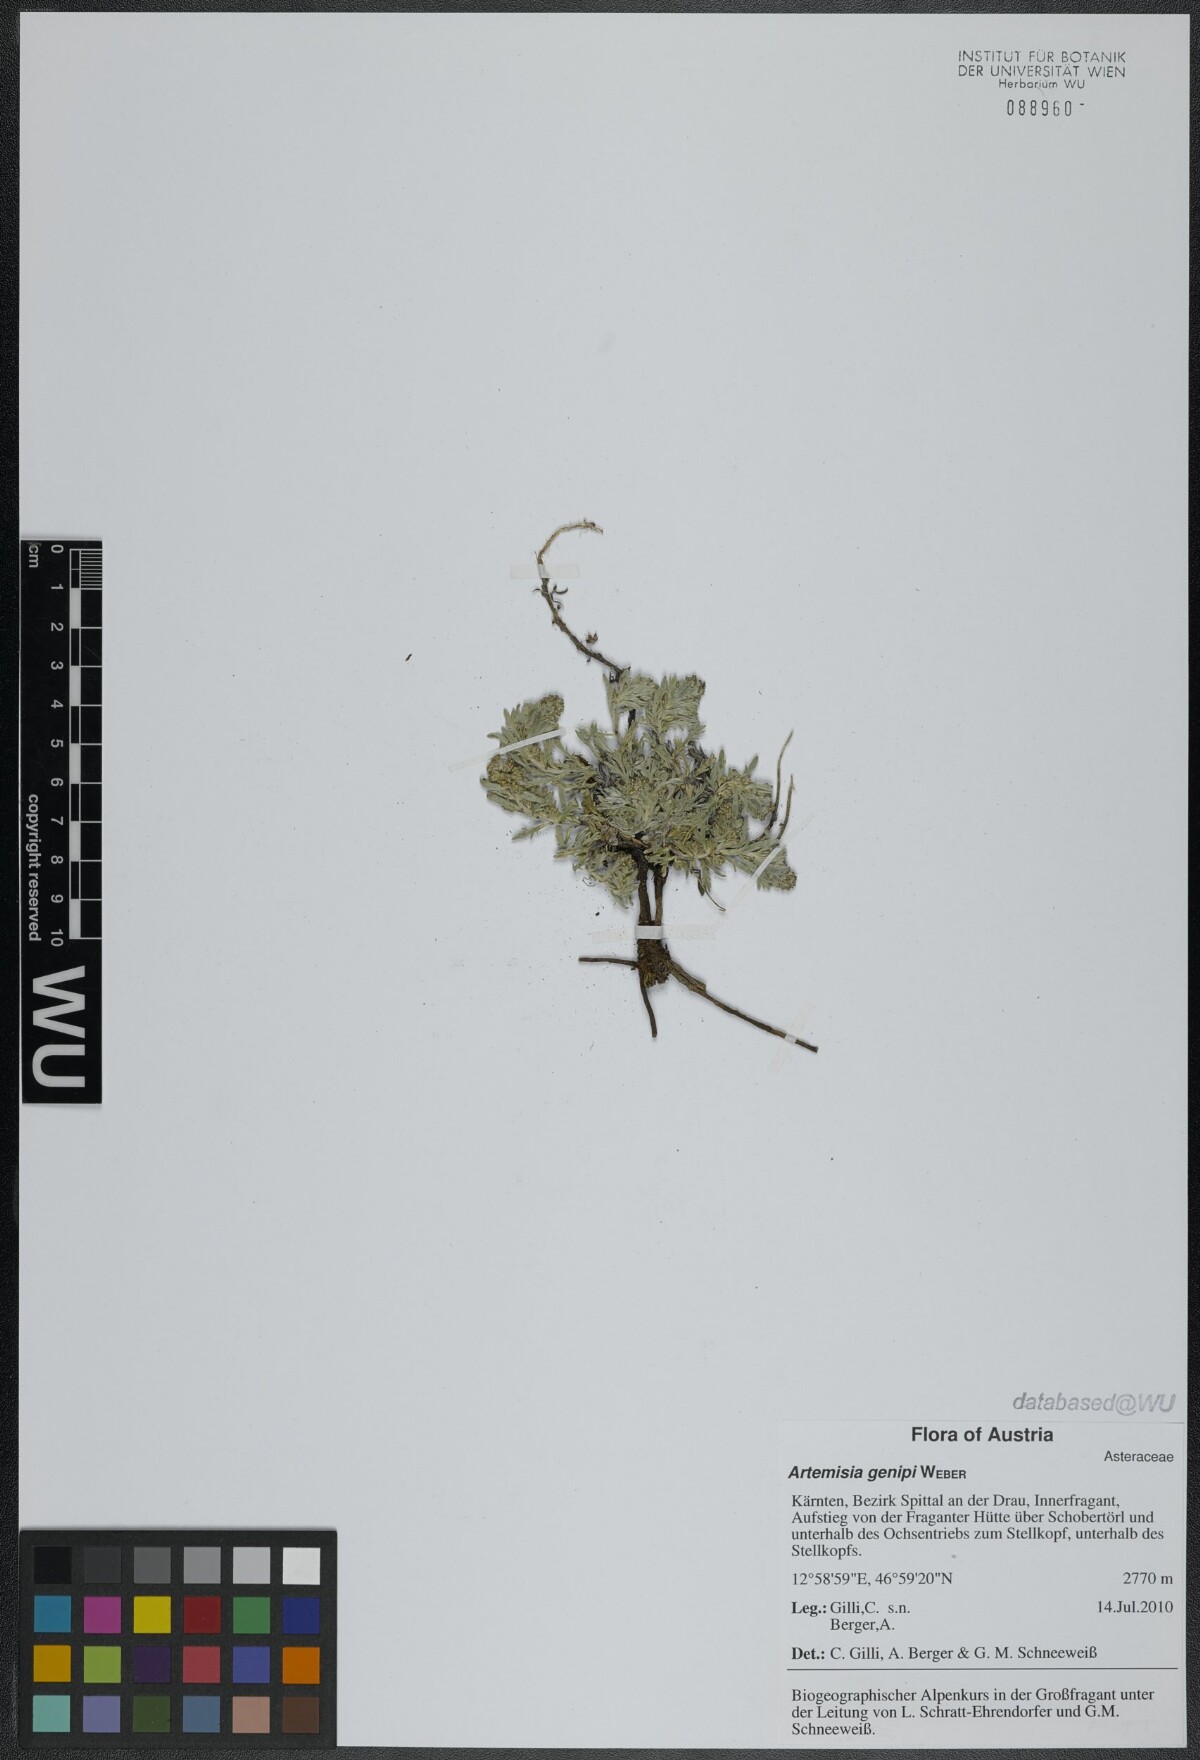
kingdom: Plantae
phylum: Tracheophyta
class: Magnoliopsida
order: Asterales
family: Asteraceae
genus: Artemisia
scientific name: Artemisia genipi
